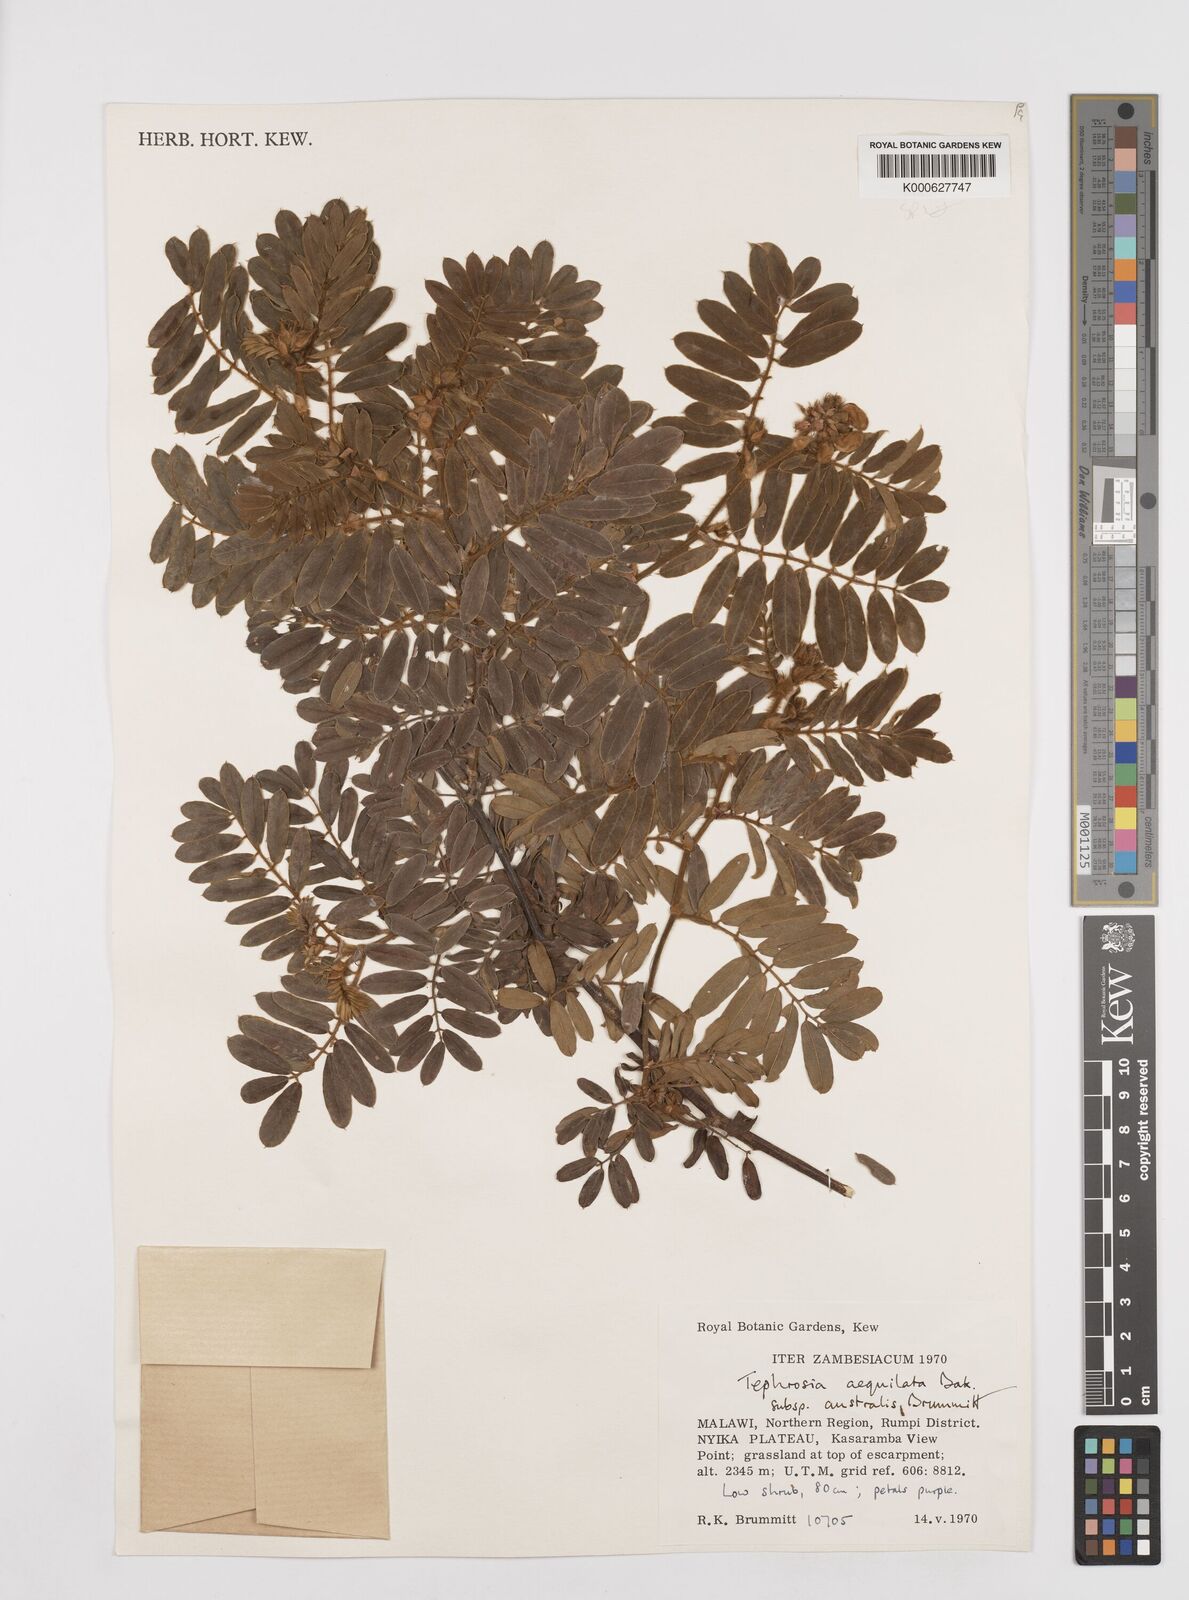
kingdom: Plantae
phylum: Tracheophyta
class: Magnoliopsida
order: Fabales
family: Fabaceae
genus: Tephrosia
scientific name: Tephrosia
